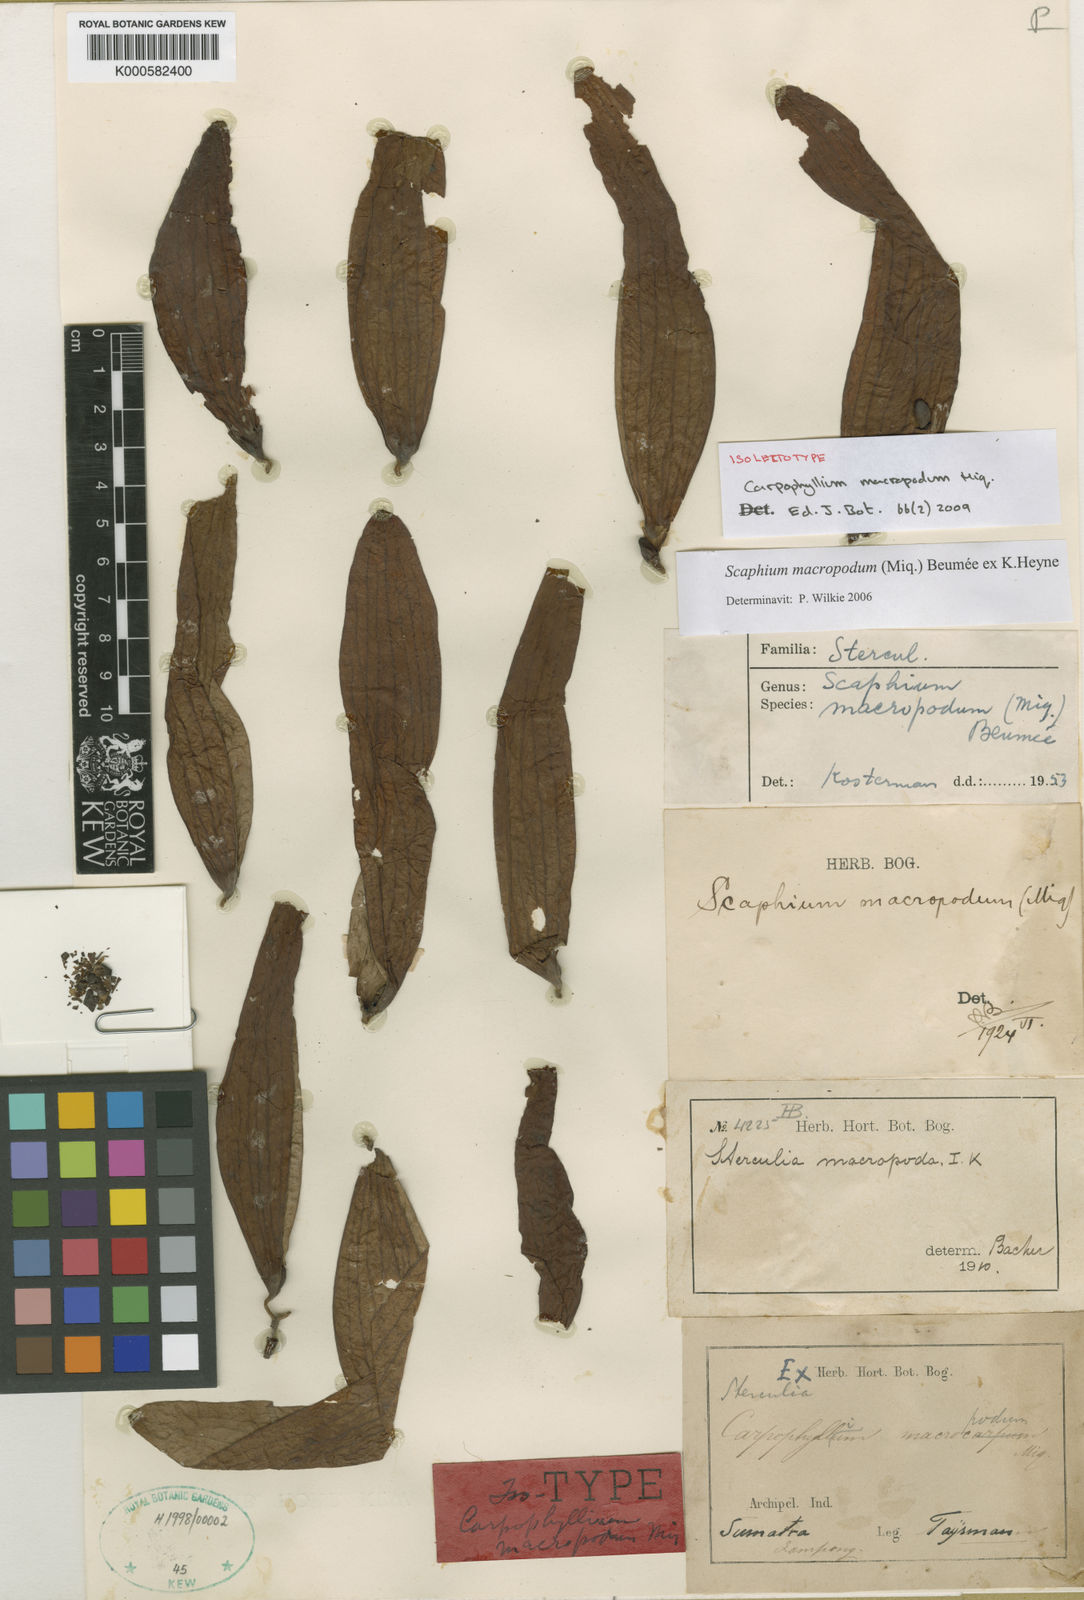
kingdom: Plantae
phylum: Tracheophyta
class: Magnoliopsida
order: Malvales
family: Malvaceae
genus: Scaphium
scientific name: Scaphium
